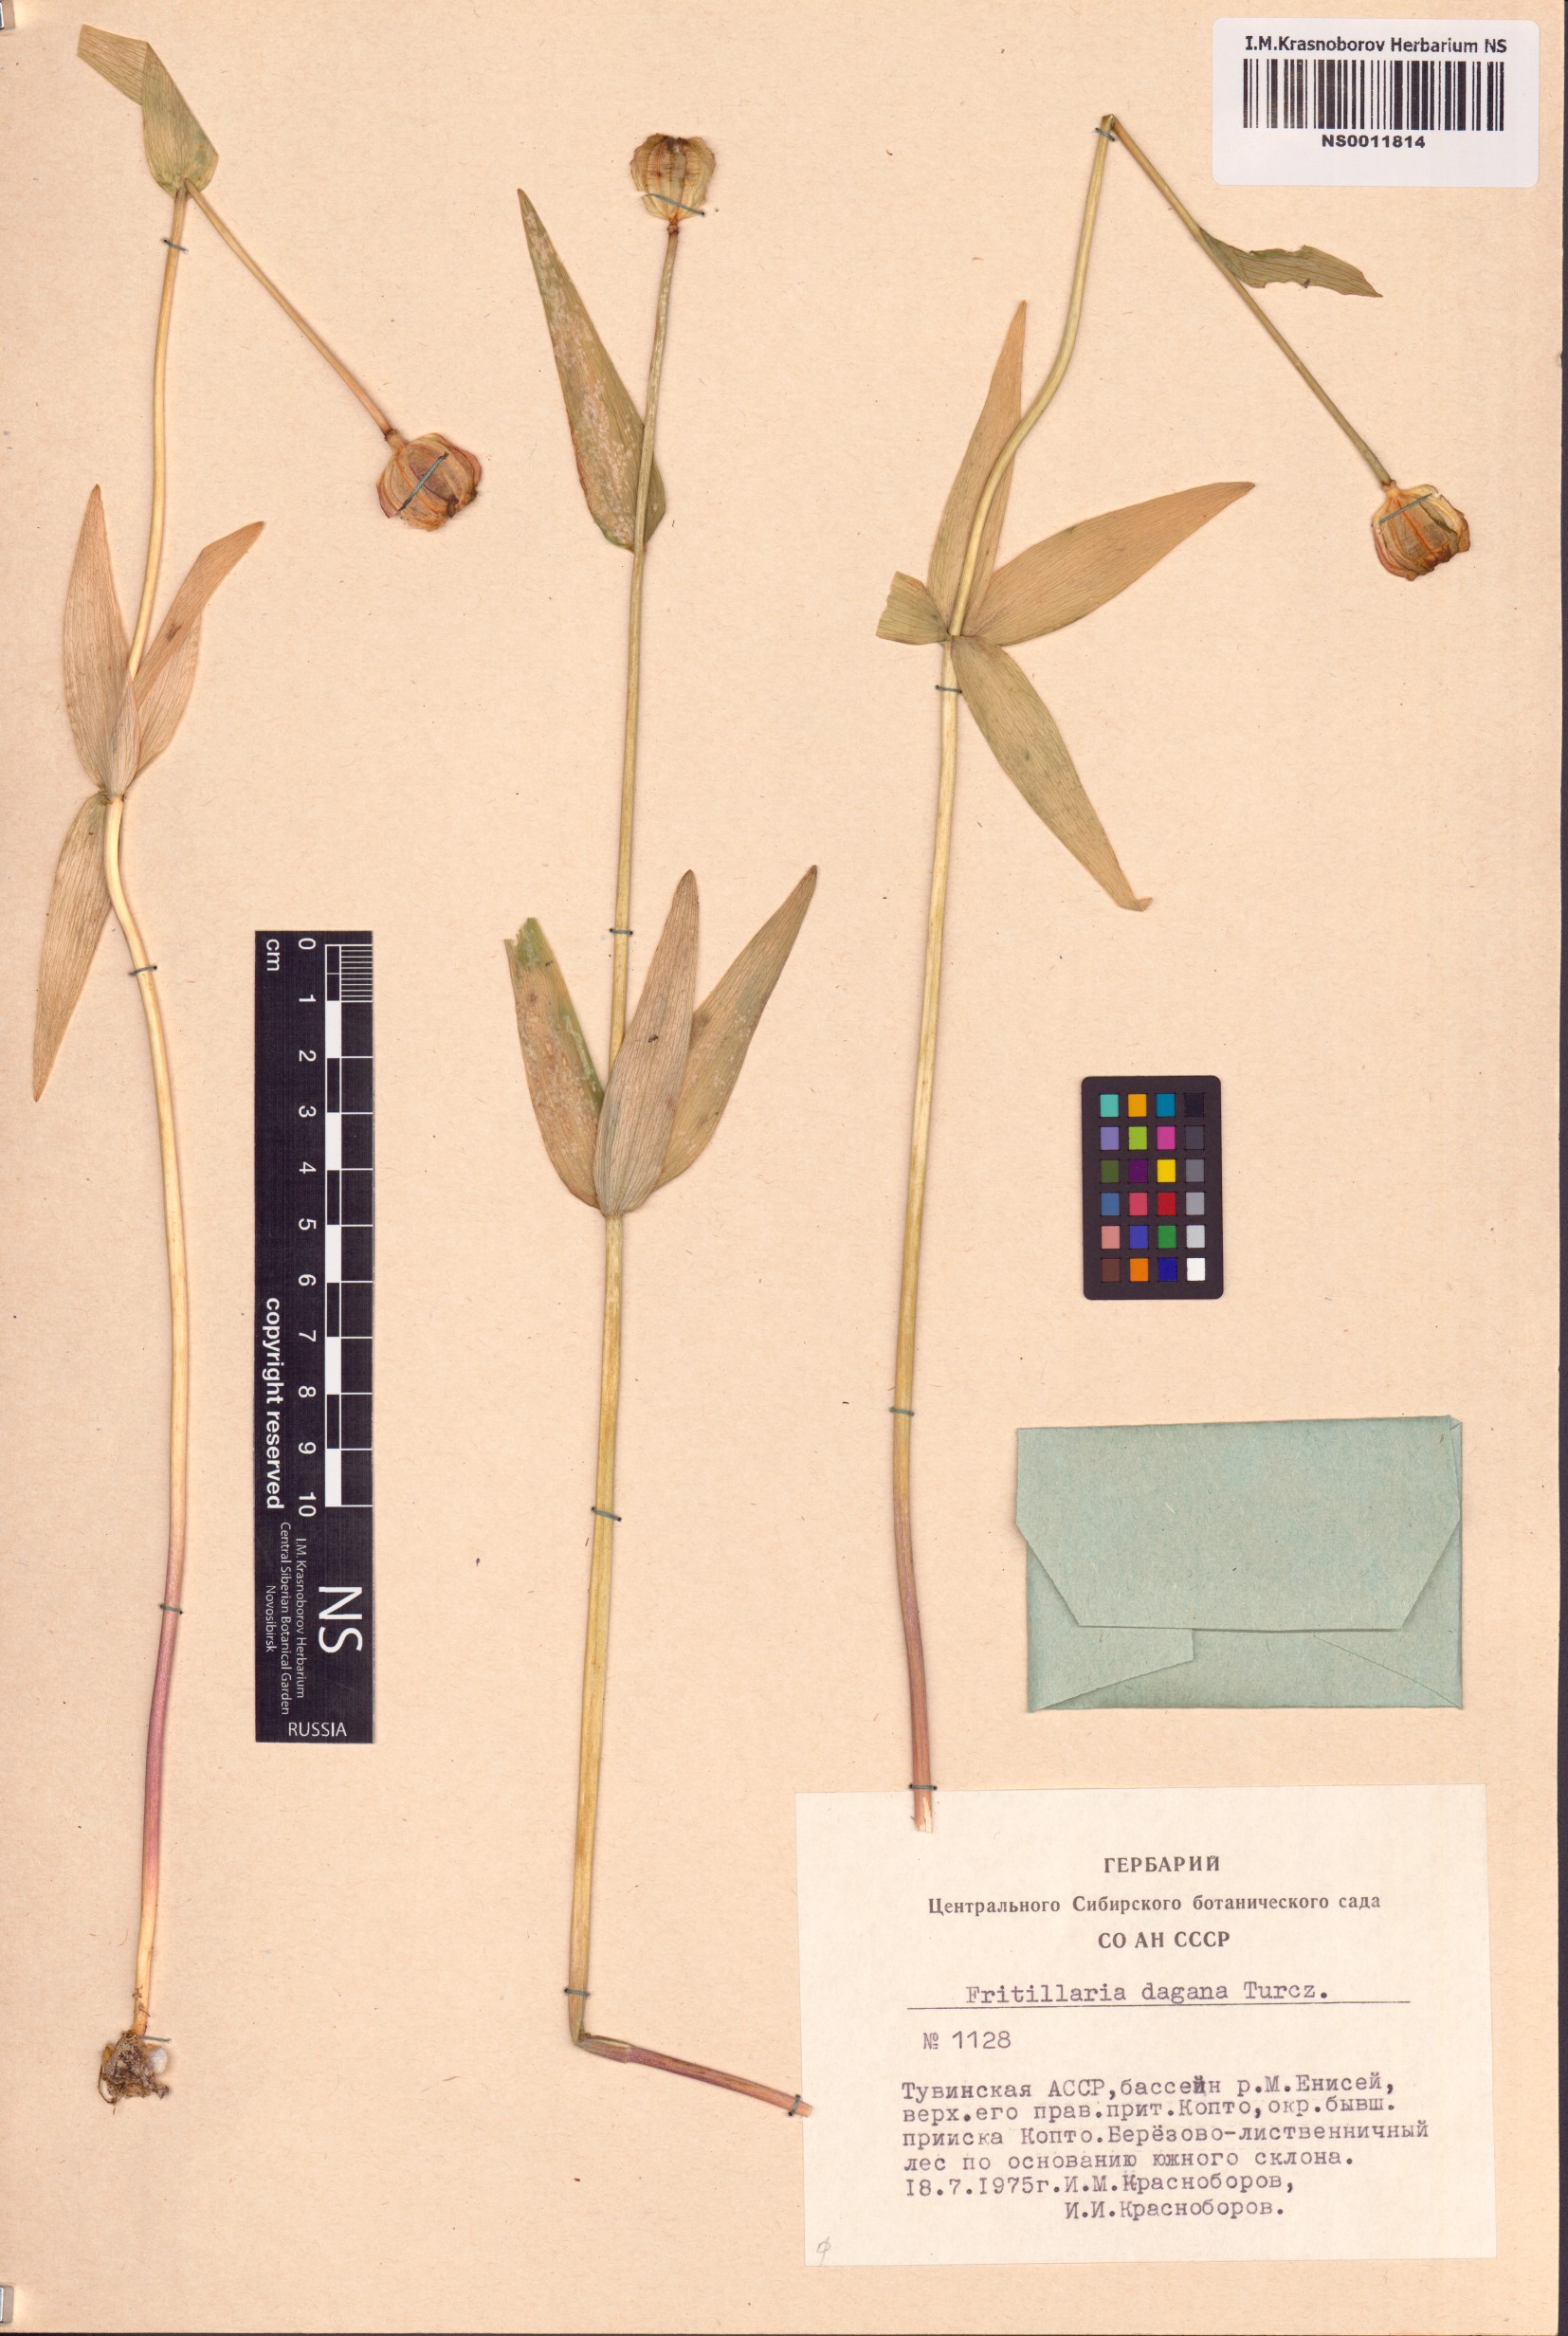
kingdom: Plantae
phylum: Tracheophyta
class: Liliopsida
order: Liliales
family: Liliaceae
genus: Fritillaria
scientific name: Fritillaria dagana
